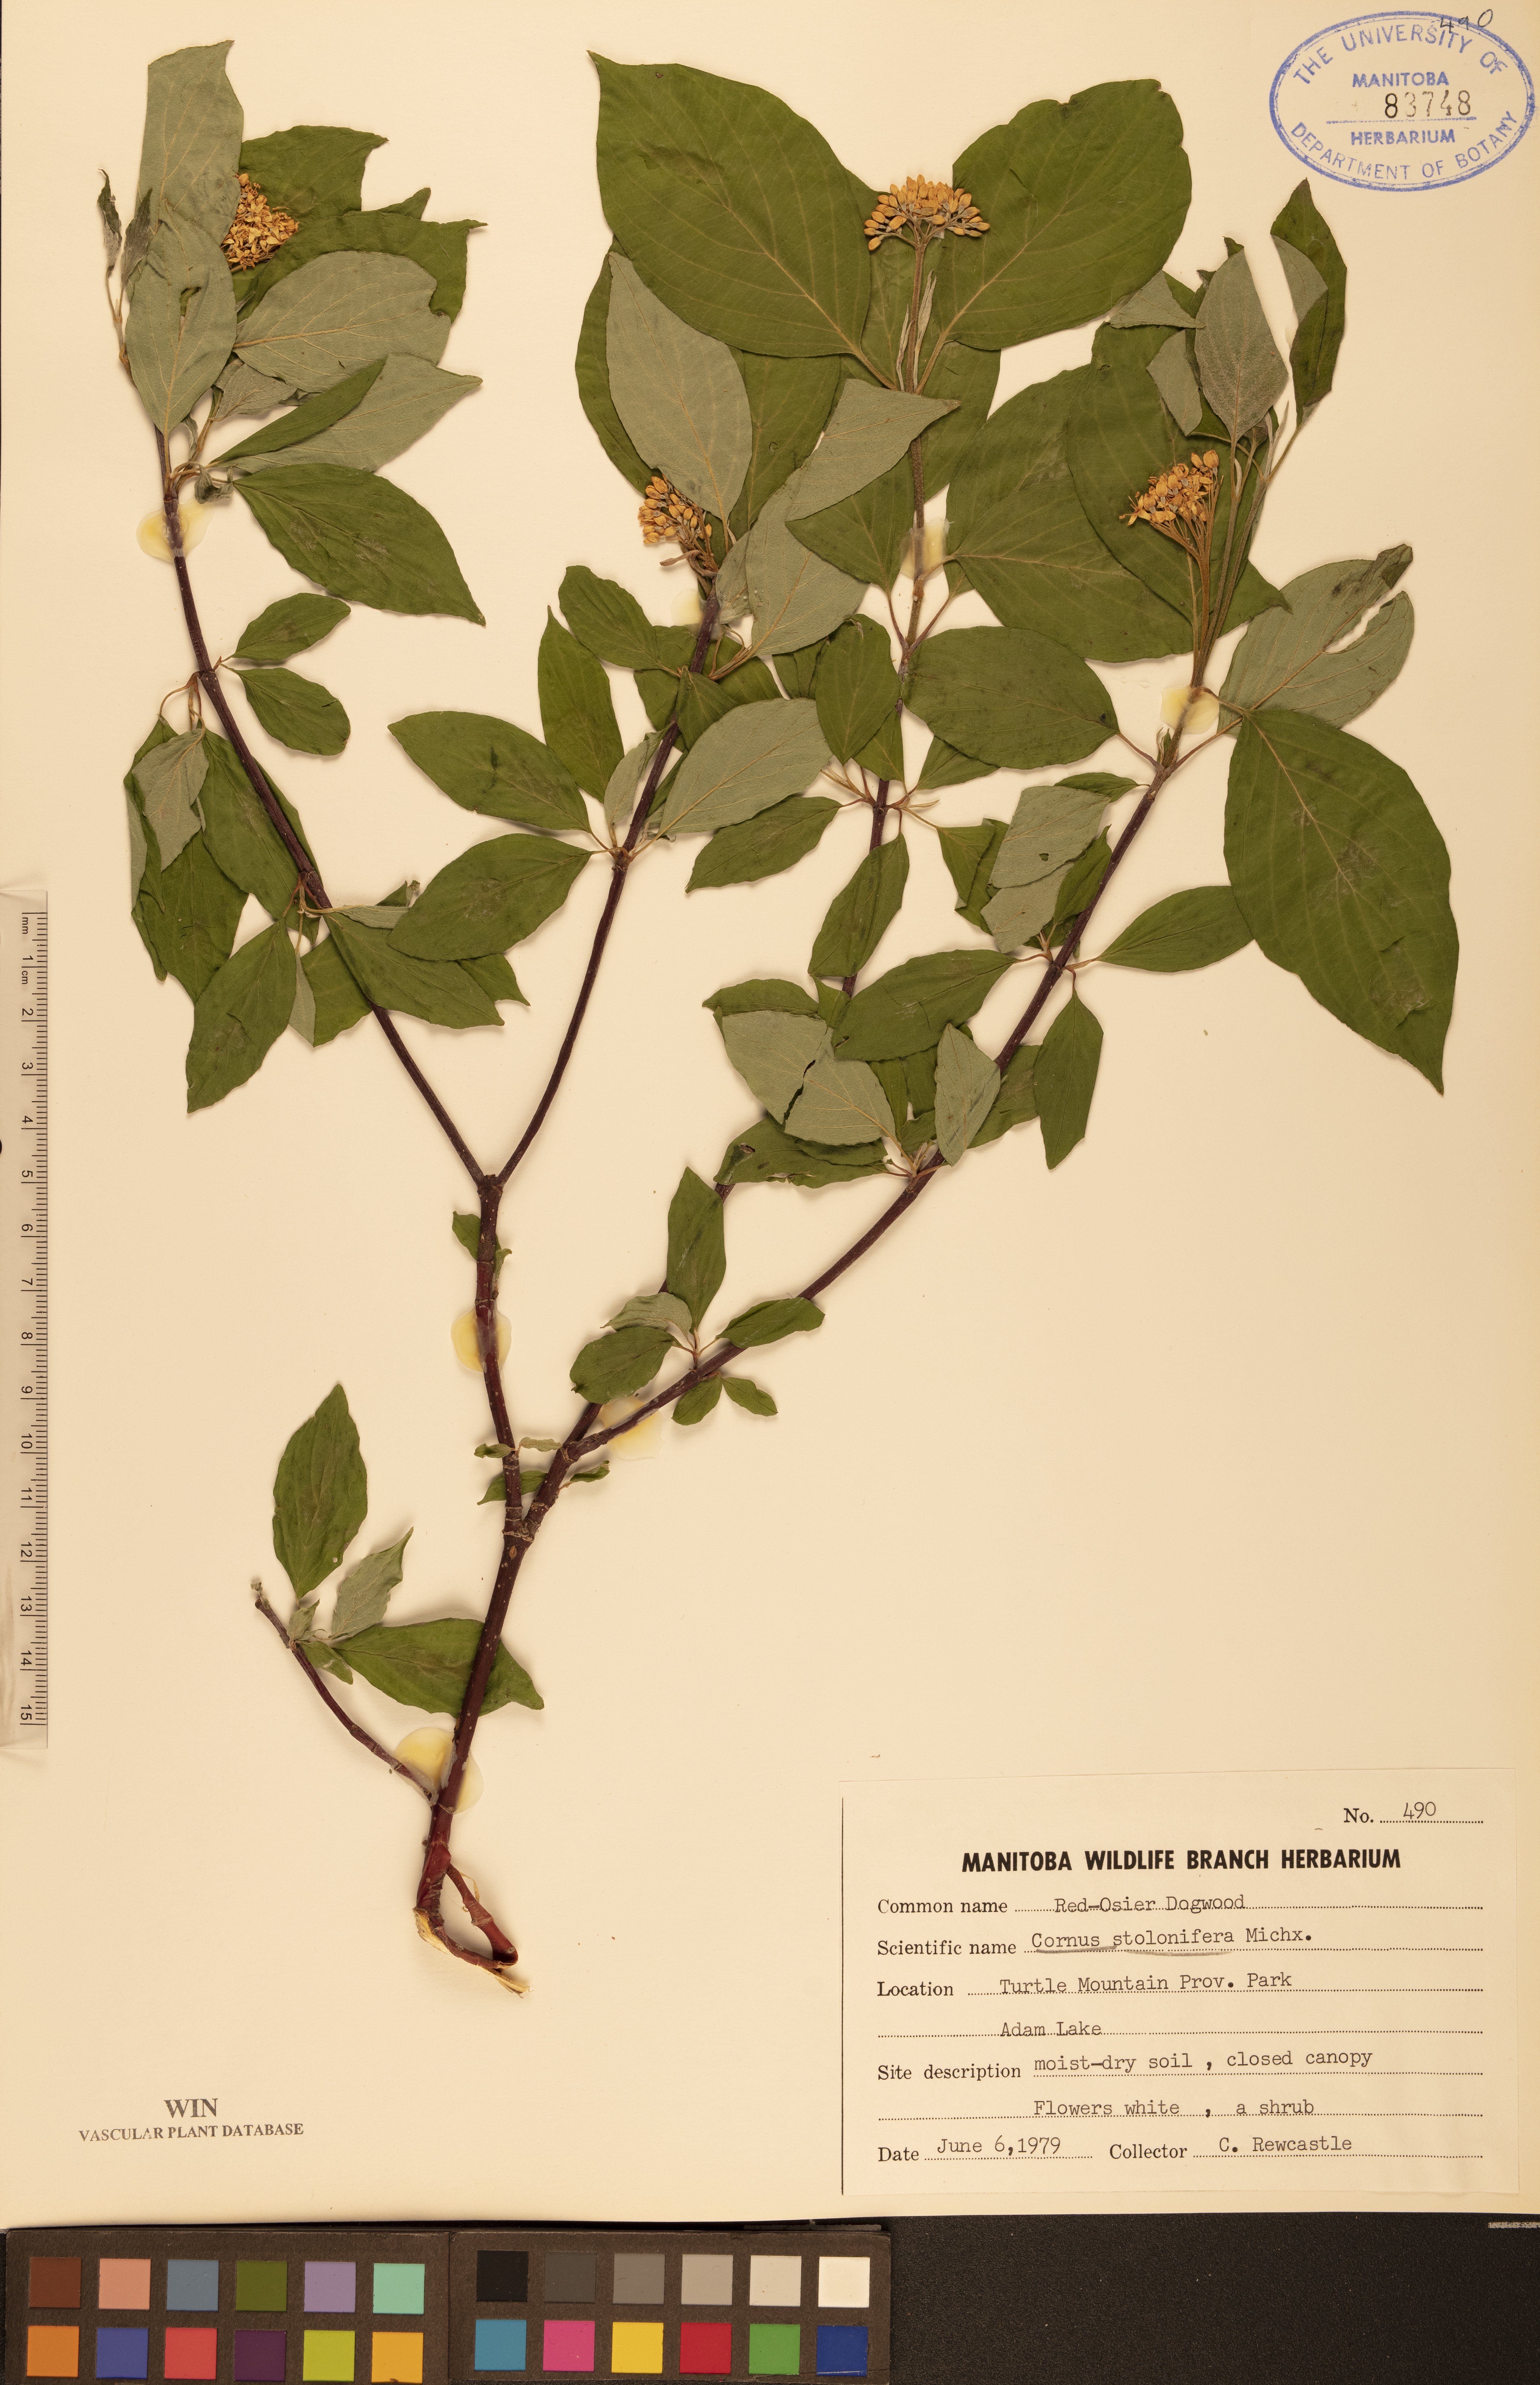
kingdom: Plantae
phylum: Tracheophyta
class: Magnoliopsida
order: Cornales
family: Cornaceae
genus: Cornus
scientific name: Cornus sericea
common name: Red-osier dogwood
